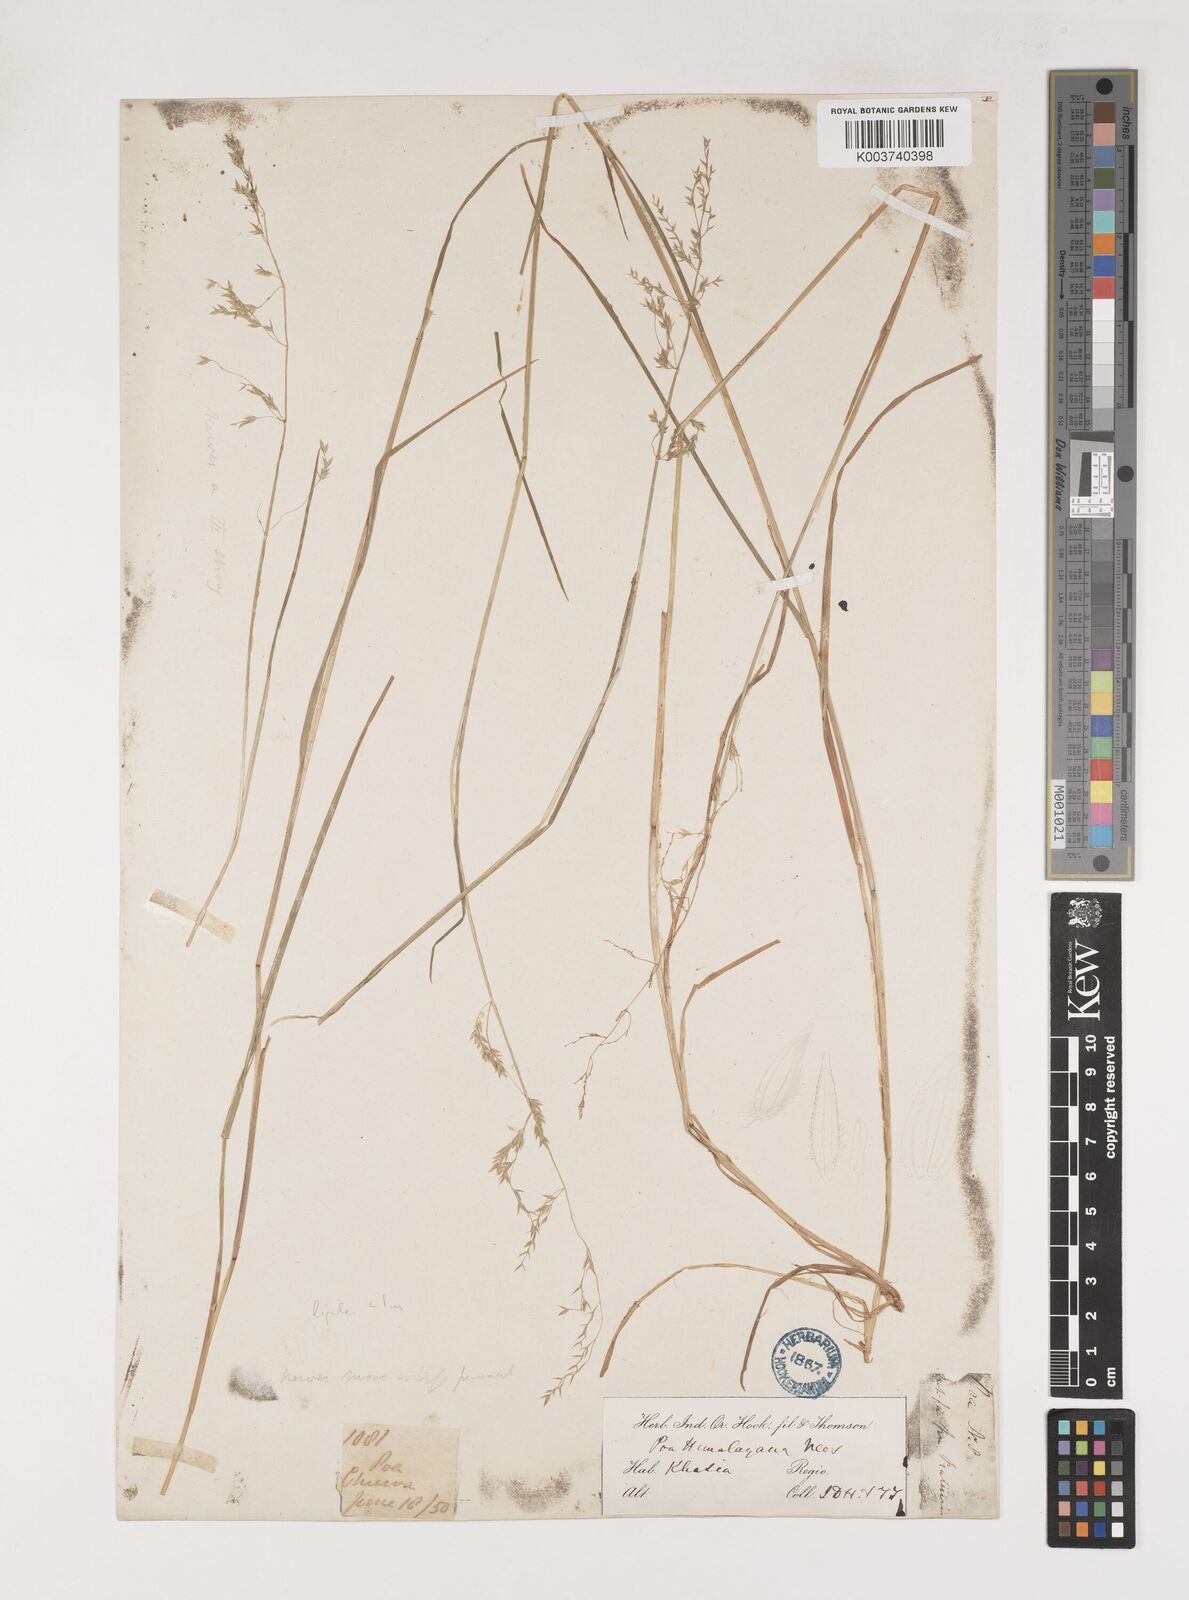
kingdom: Plantae
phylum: Tracheophyta
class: Liliopsida
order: Poales
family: Poaceae
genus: Poa
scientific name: Poa khasiana
